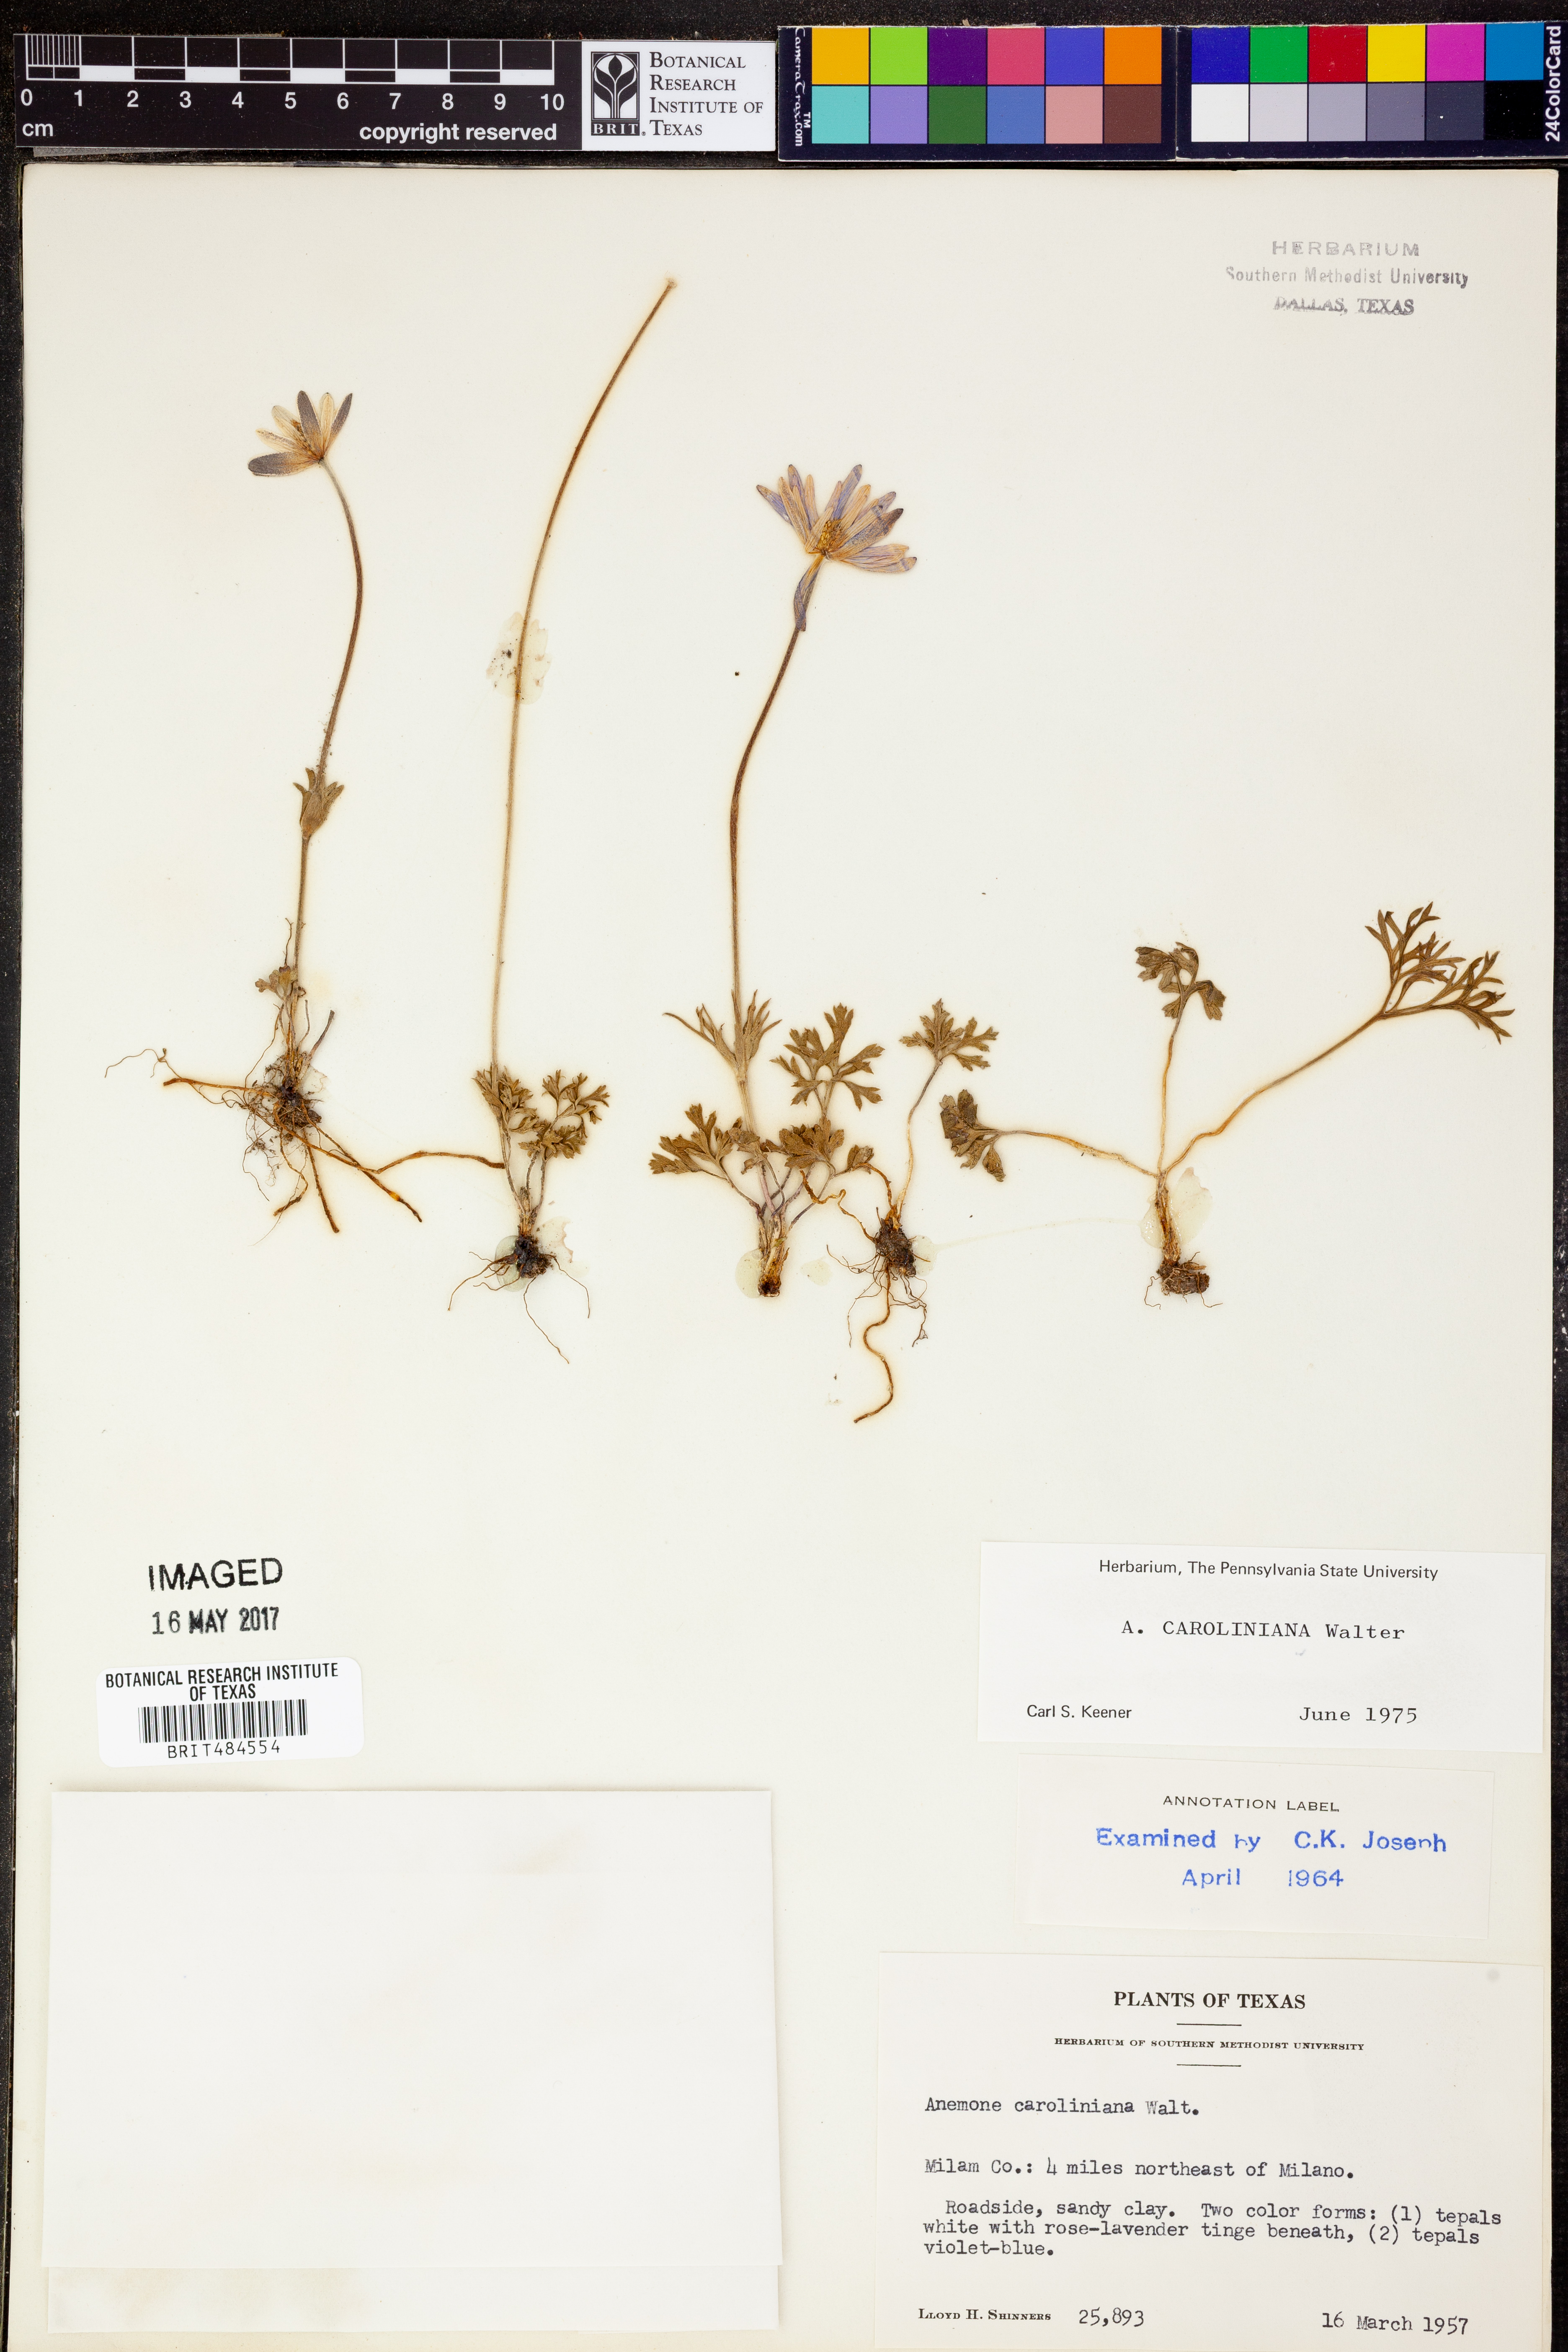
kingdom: Plantae
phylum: Tracheophyta
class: Magnoliopsida
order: Ranunculales
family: Ranunculaceae
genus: Anemone
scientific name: Anemone caroliniana
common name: Carolina anemone
